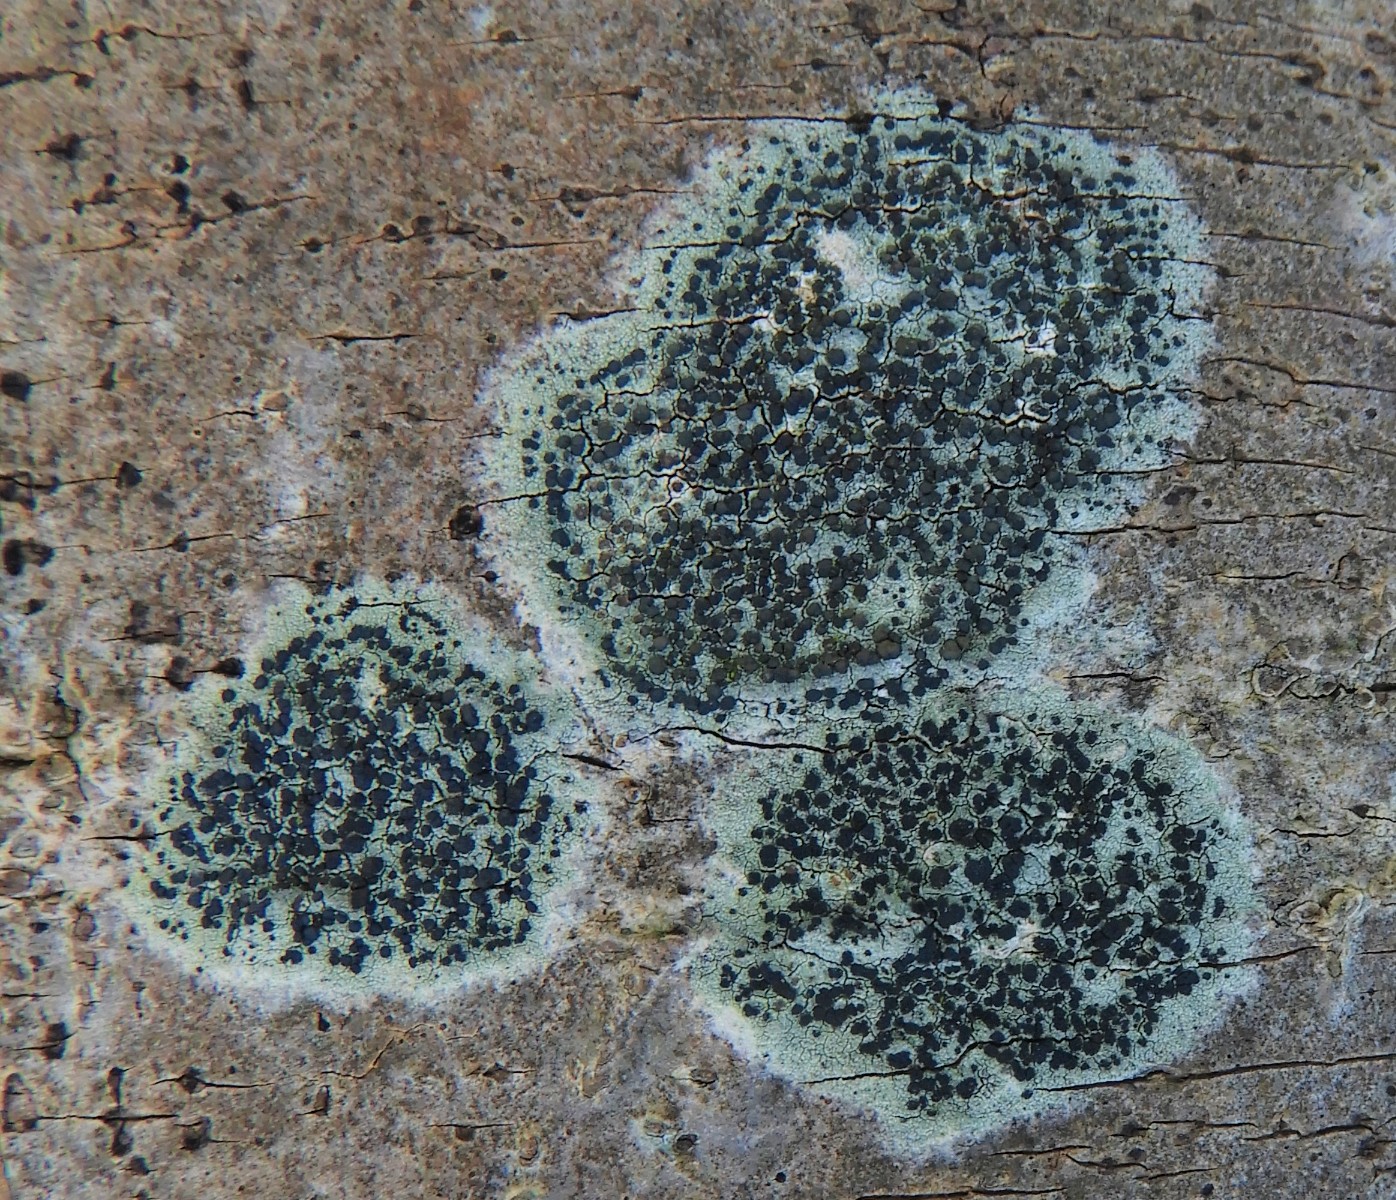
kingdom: Fungi
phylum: Ascomycota
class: Lecanoromycetes
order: Lecanorales
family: Lecanoraceae
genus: Lecidella
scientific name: Lecidella elaeochroma
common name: grågrøn skivelav
